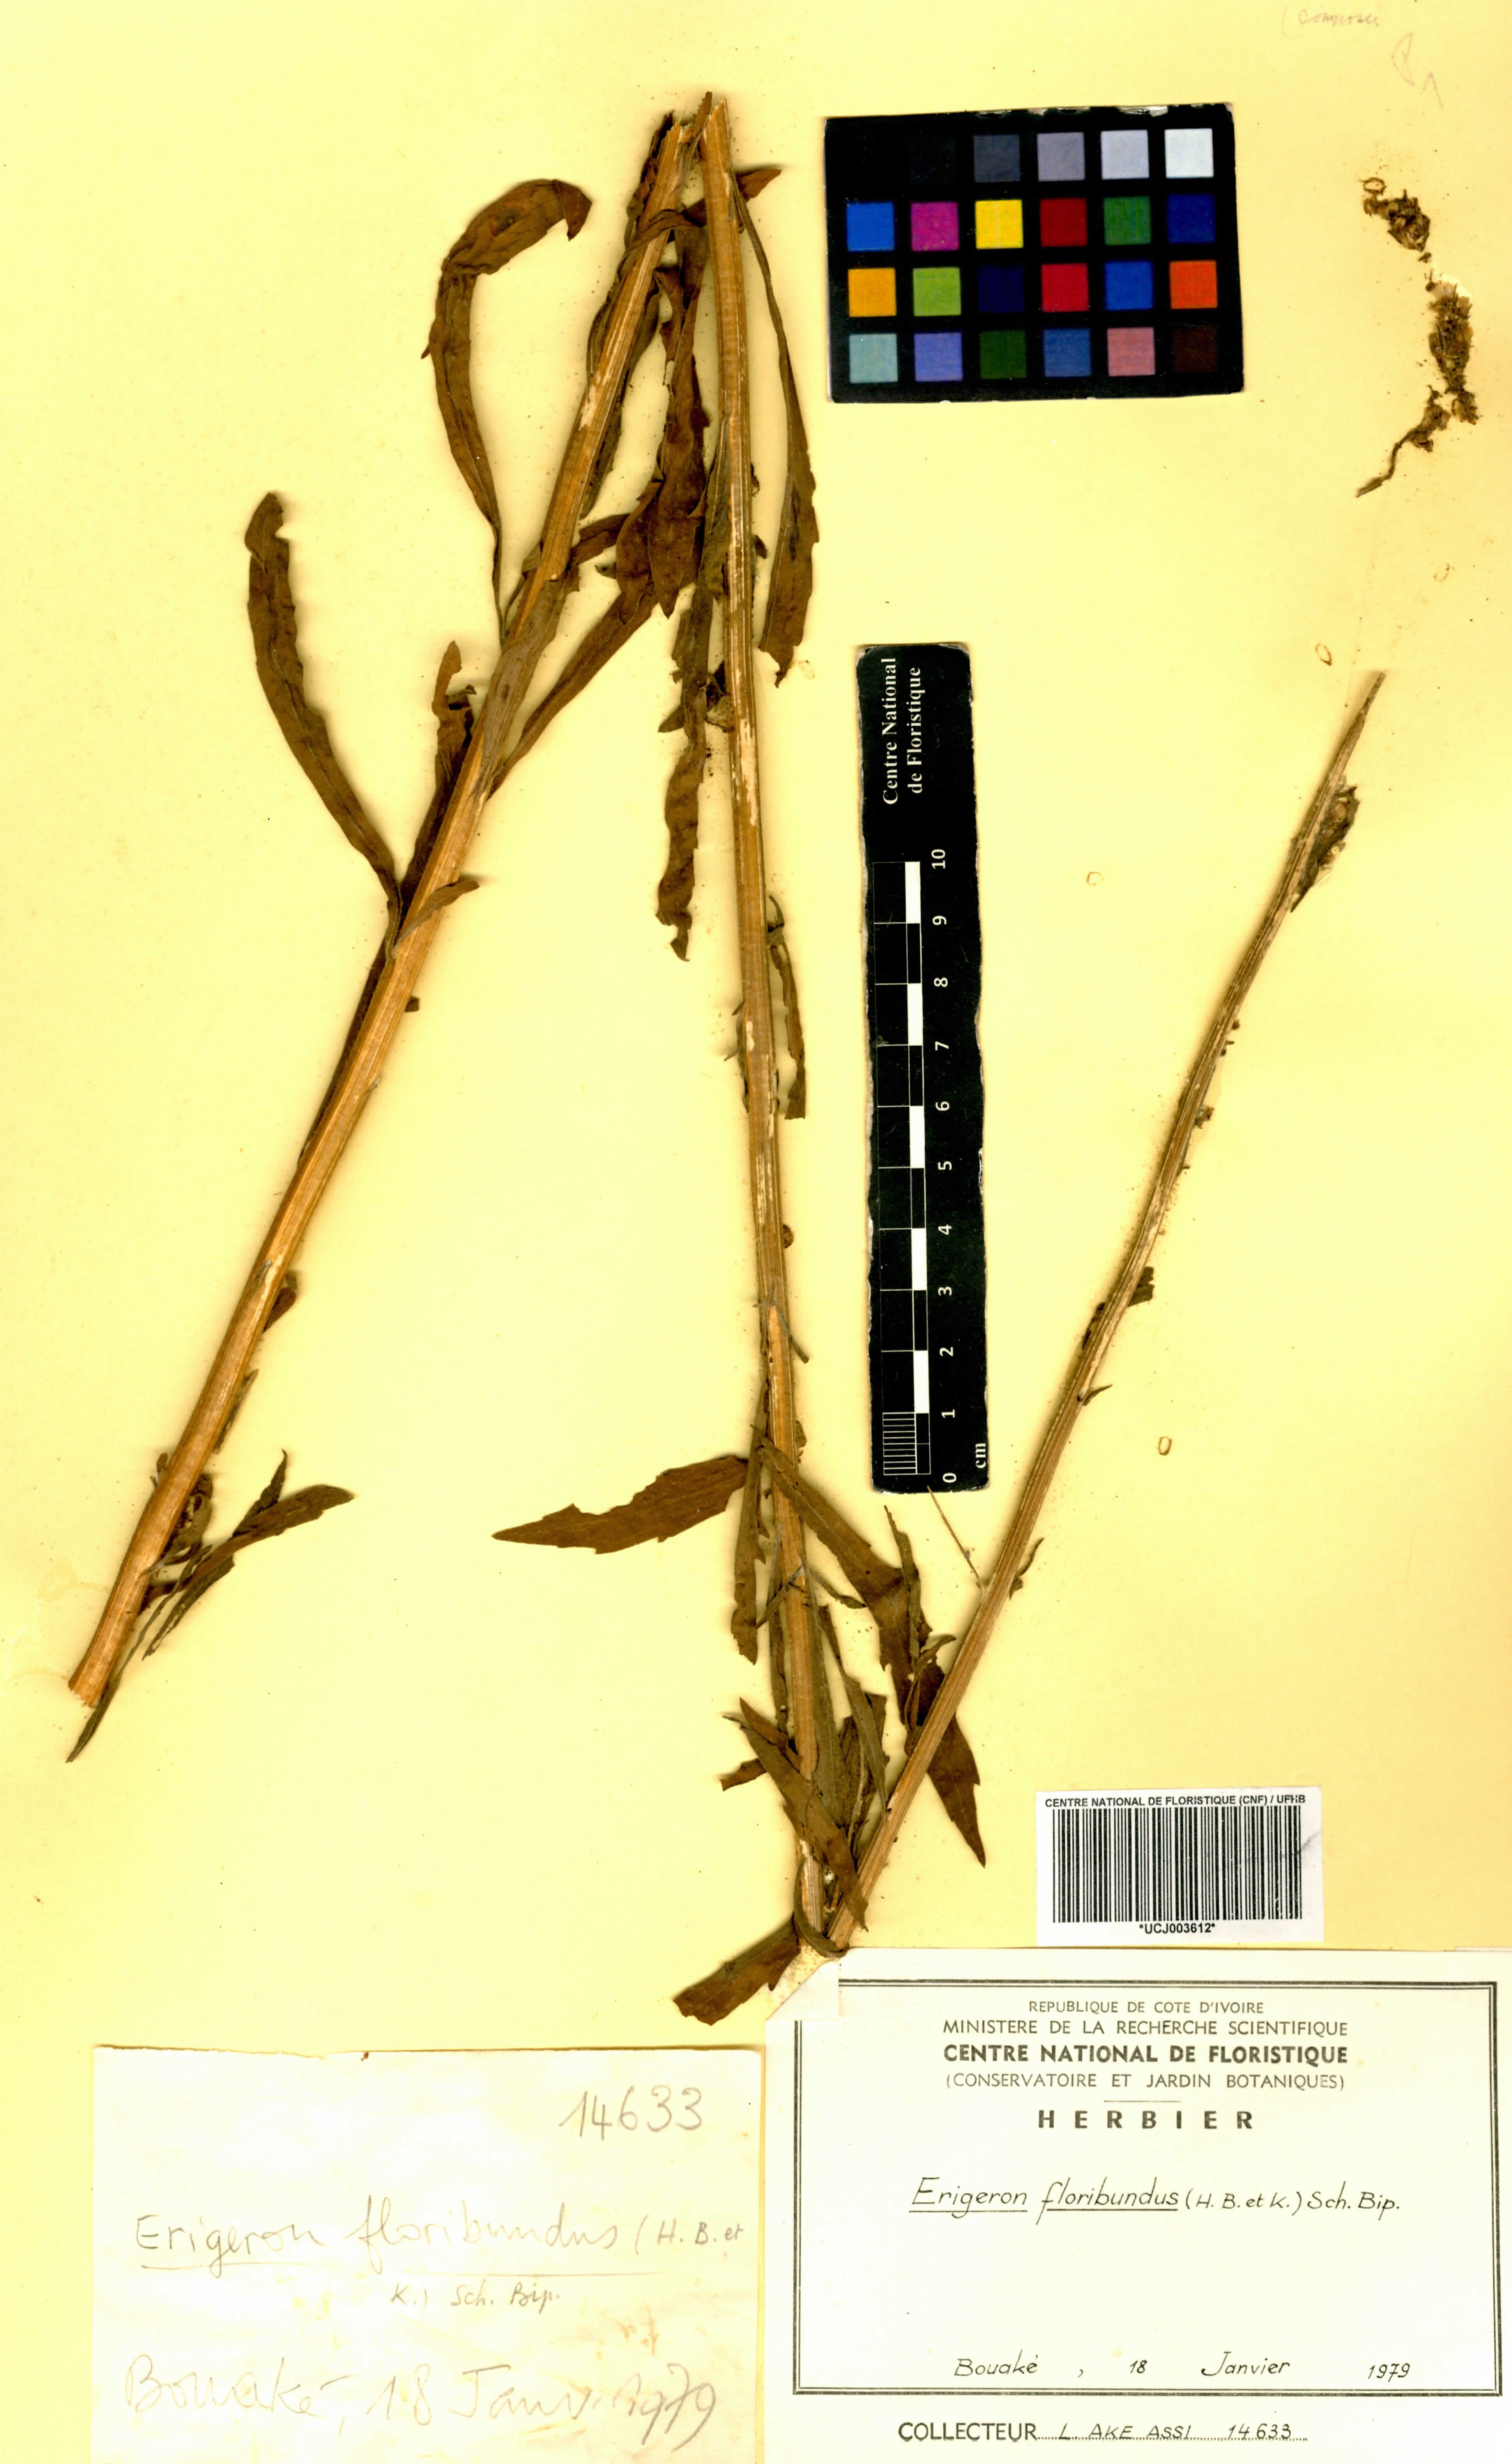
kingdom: Plantae
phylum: Tracheophyta
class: Magnoliopsida
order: Asterales
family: Asteraceae
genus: Erigeron
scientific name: Erigeron floribundus
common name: Bilbao fleabane
